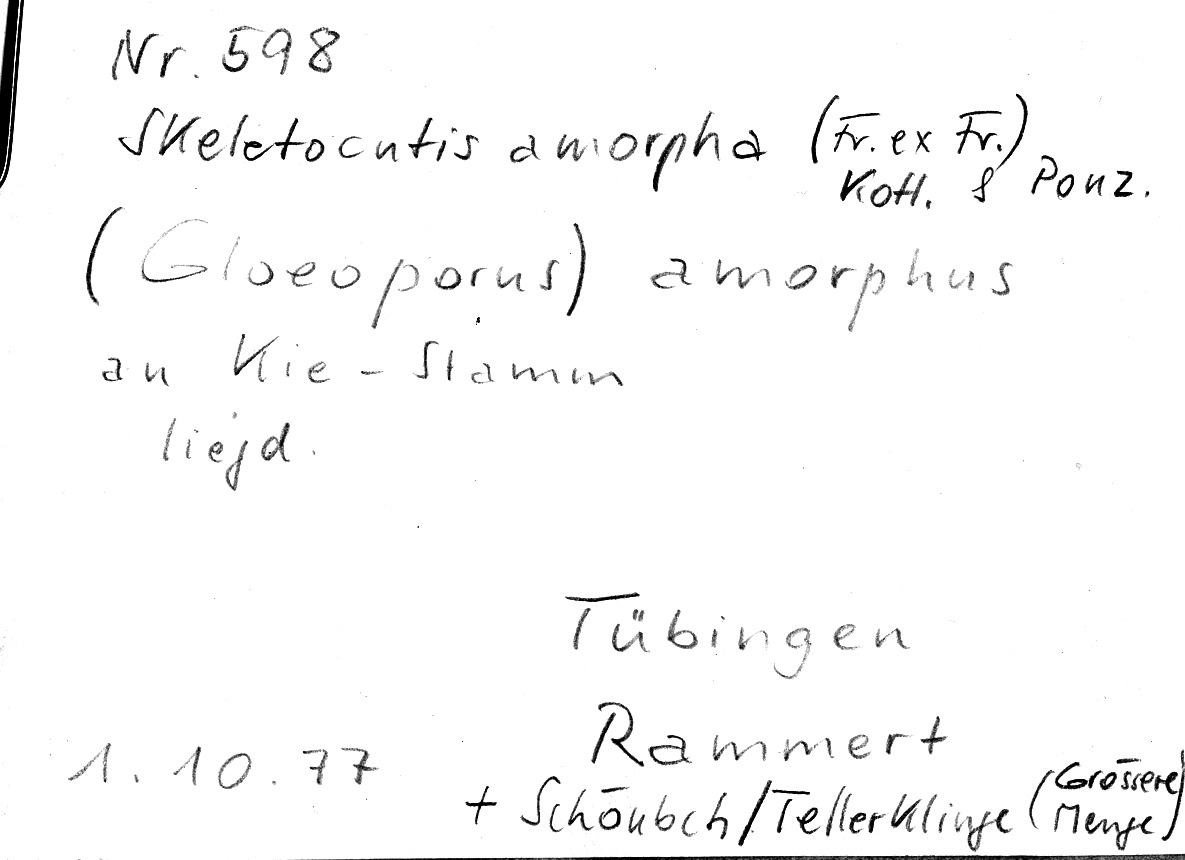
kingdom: Fungi
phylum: Basidiomycota
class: Agaricomycetes
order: Polyporales
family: Incrustoporiaceae
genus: Skeletocutis
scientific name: Skeletocutis amorpha
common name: Rusty crust
